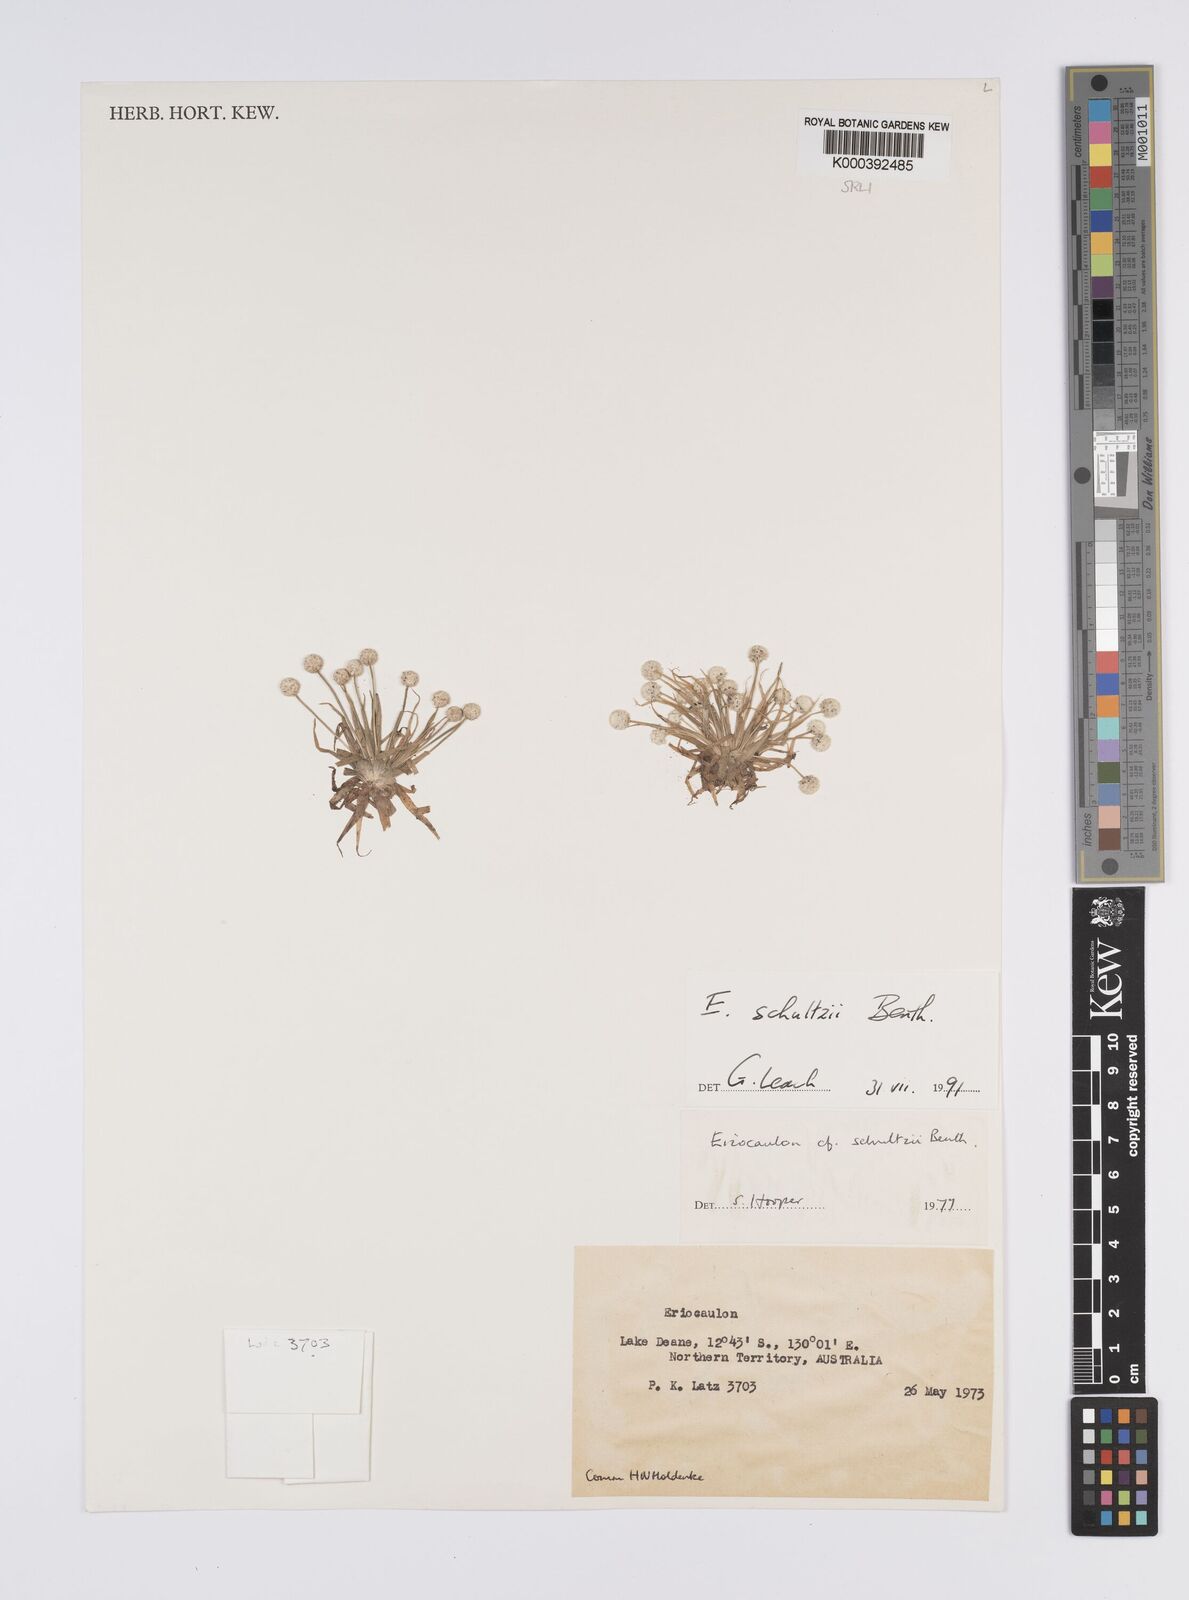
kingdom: Plantae
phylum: Tracheophyta
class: Liliopsida
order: Poales
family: Eriocaulaceae
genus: Eriocaulon
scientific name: Eriocaulon schultzii
